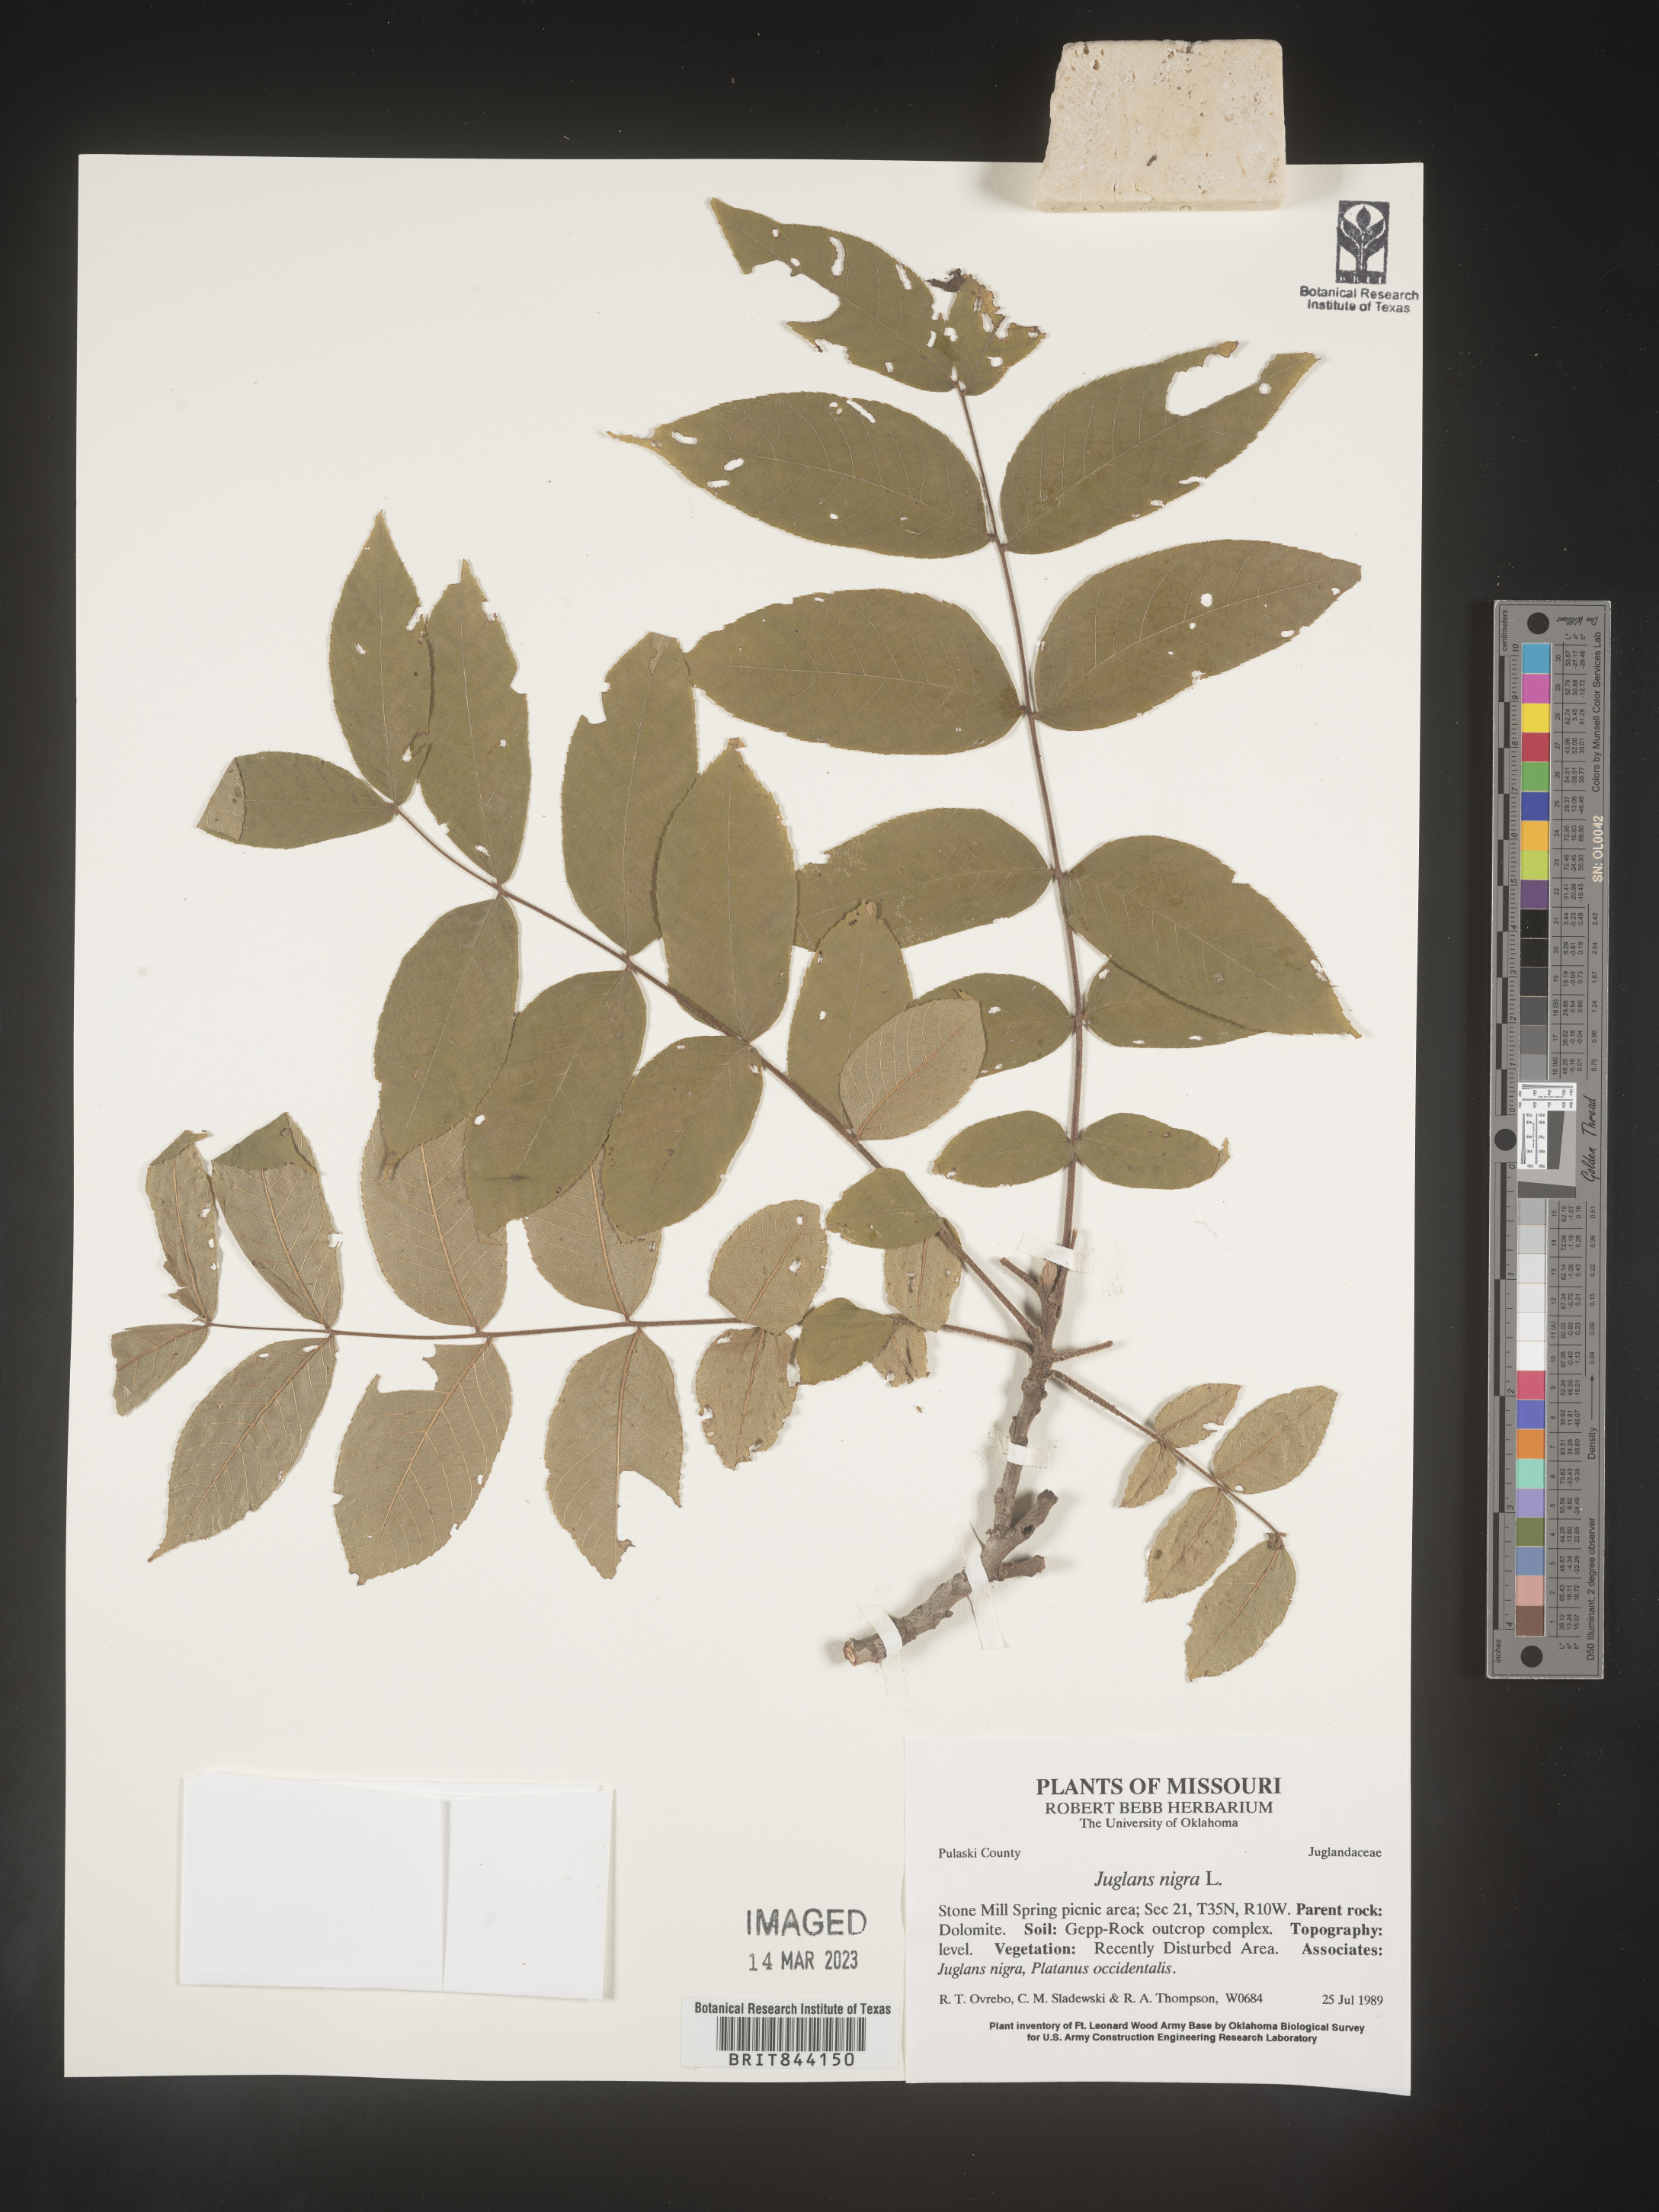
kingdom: Plantae
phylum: Tracheophyta
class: Magnoliopsida
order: Fagales
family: Juglandaceae
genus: Juglans
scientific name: Juglans nigra
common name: Black walnut
